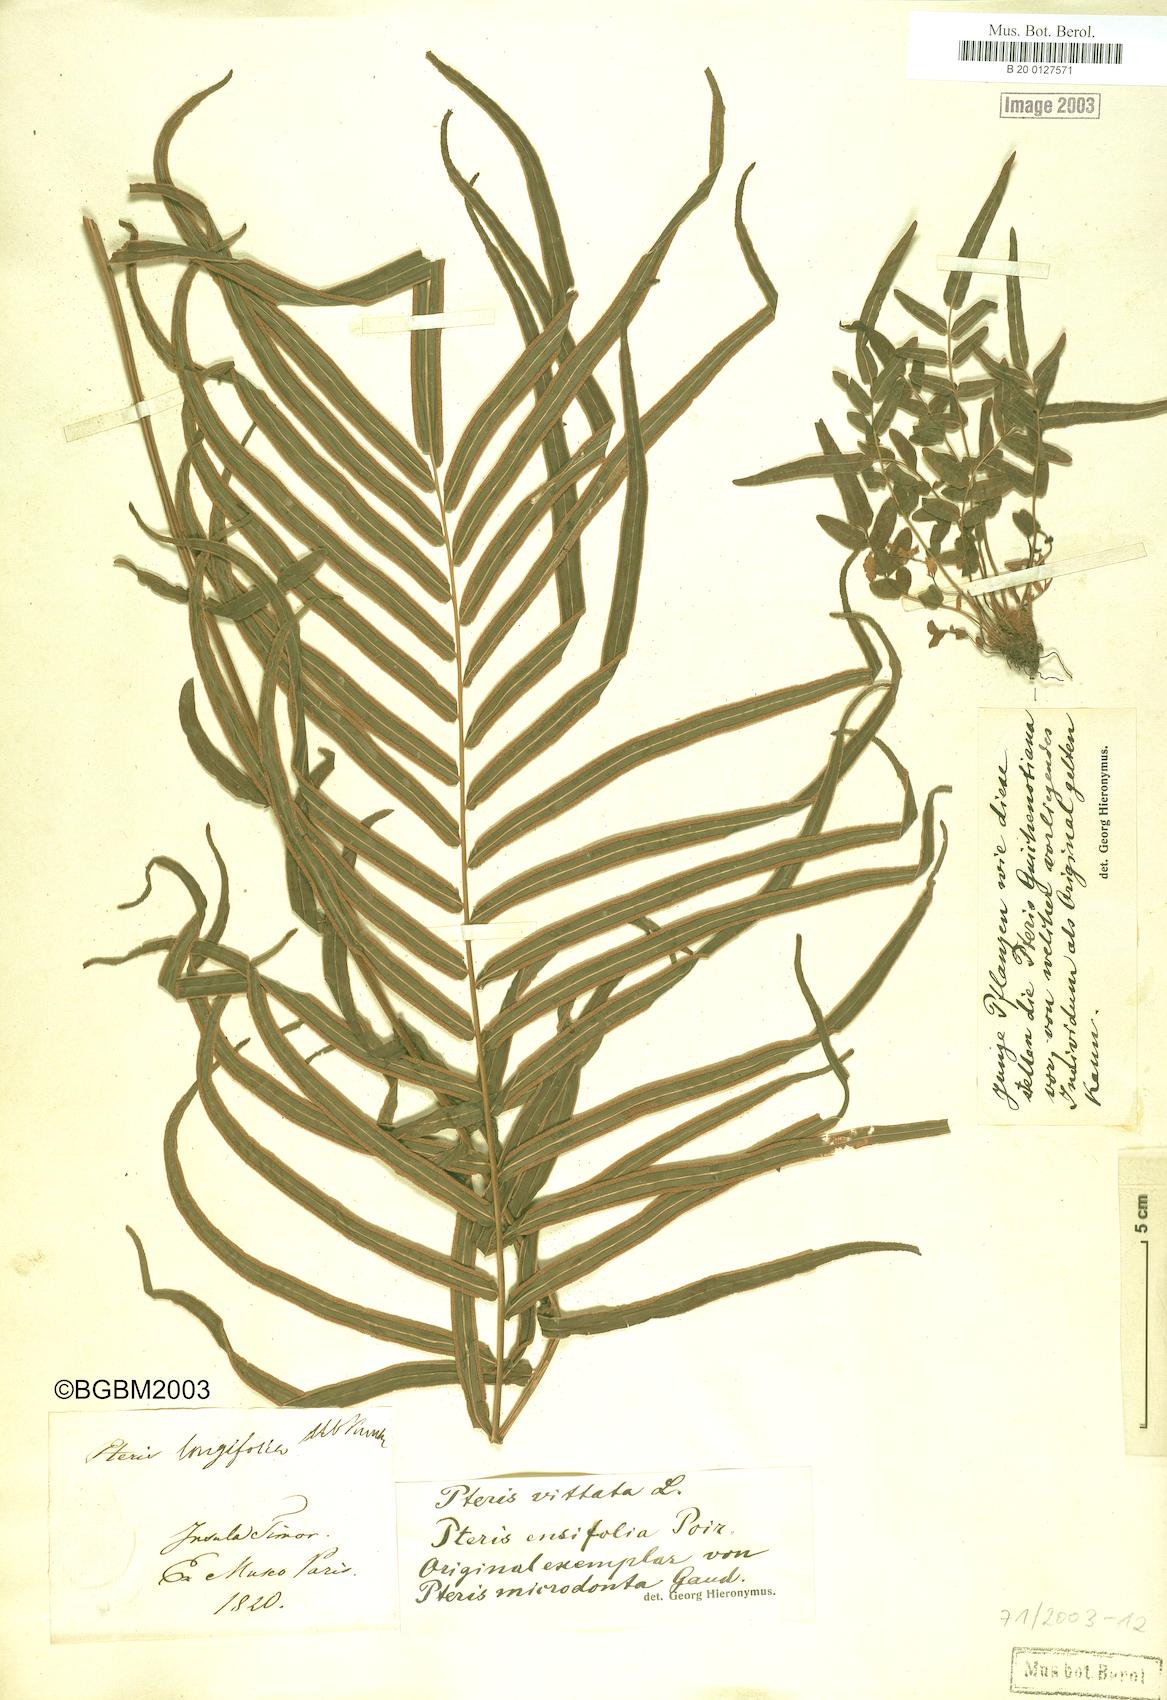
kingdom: Plantae
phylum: Tracheophyta
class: Polypodiopsida
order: Polypodiales
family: Pteridaceae
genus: Pteris
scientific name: Pteris vittata
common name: Ladder brake
